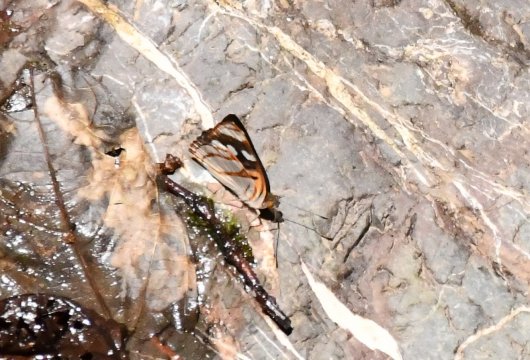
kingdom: Animalia
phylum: Arthropoda
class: Insecta
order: Lepidoptera
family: Nymphalidae
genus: Dynamine
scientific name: Dynamine sara
